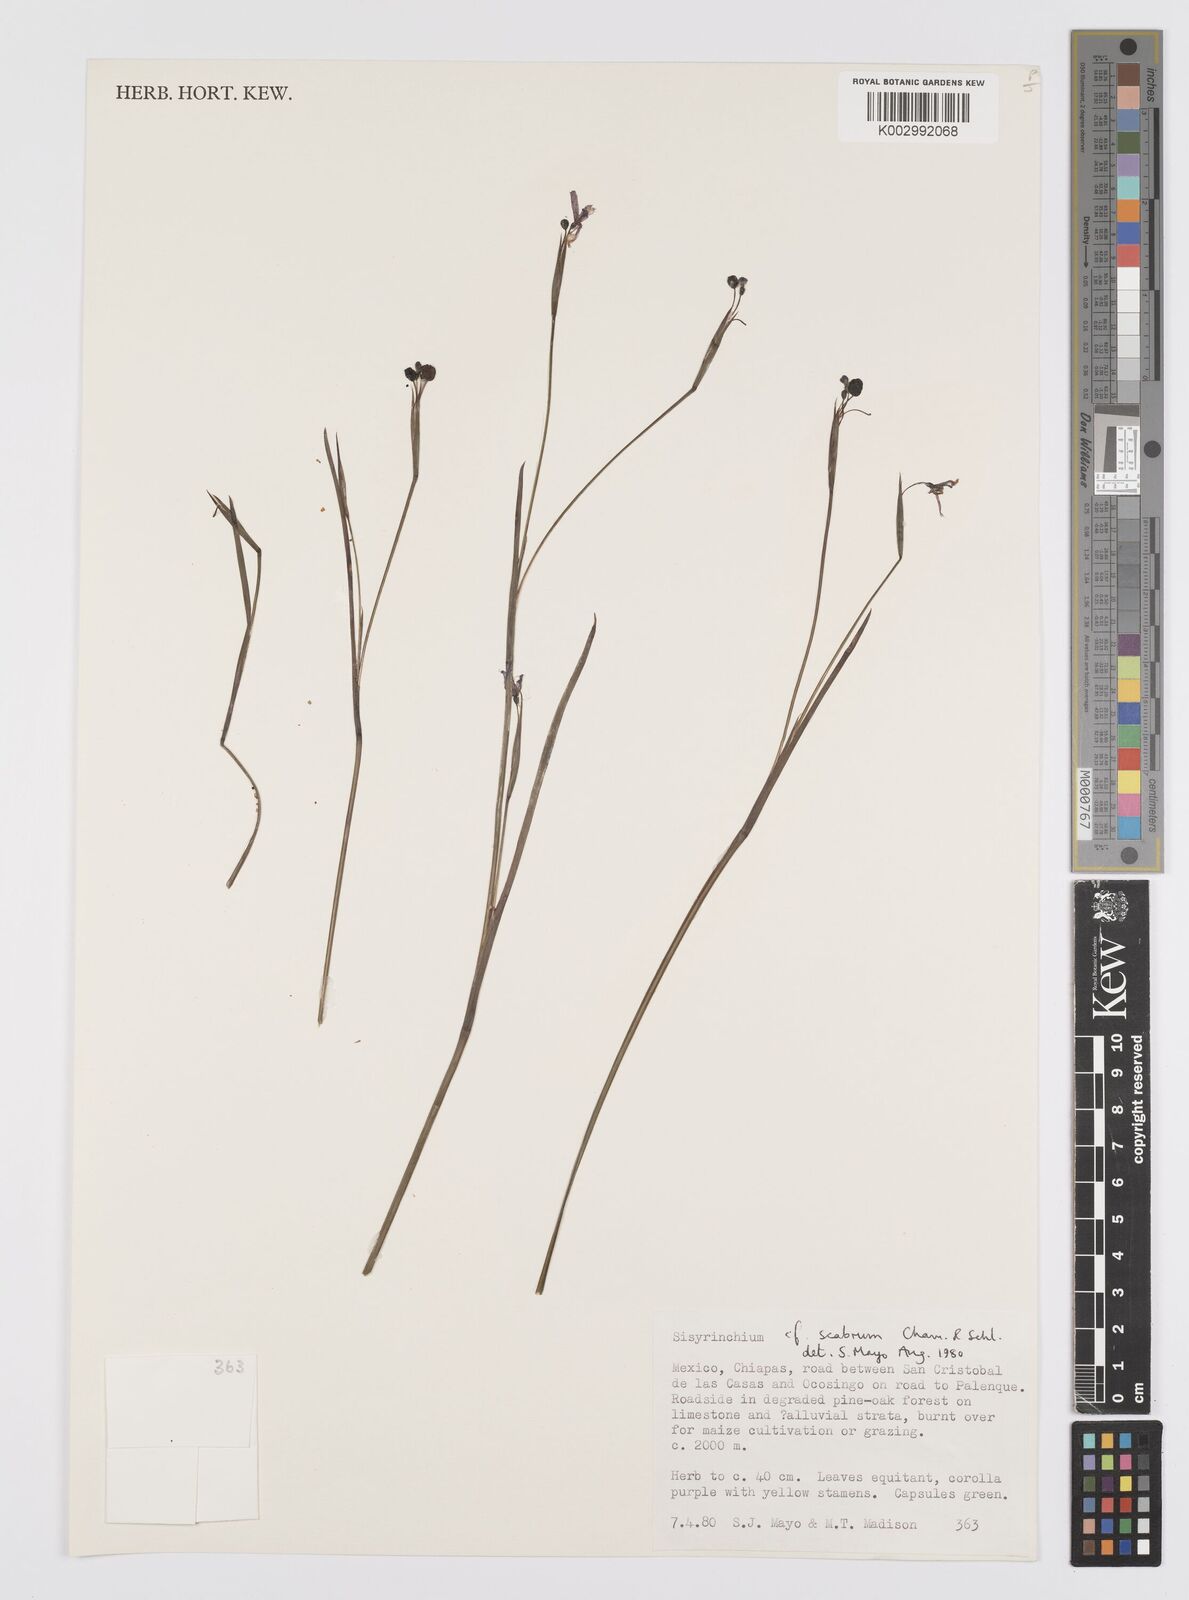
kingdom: Plantae
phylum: Tracheophyta
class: Liliopsida
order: Asparagales
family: Iridaceae
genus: Sisyrinchium
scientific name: Sisyrinchium scabrum
